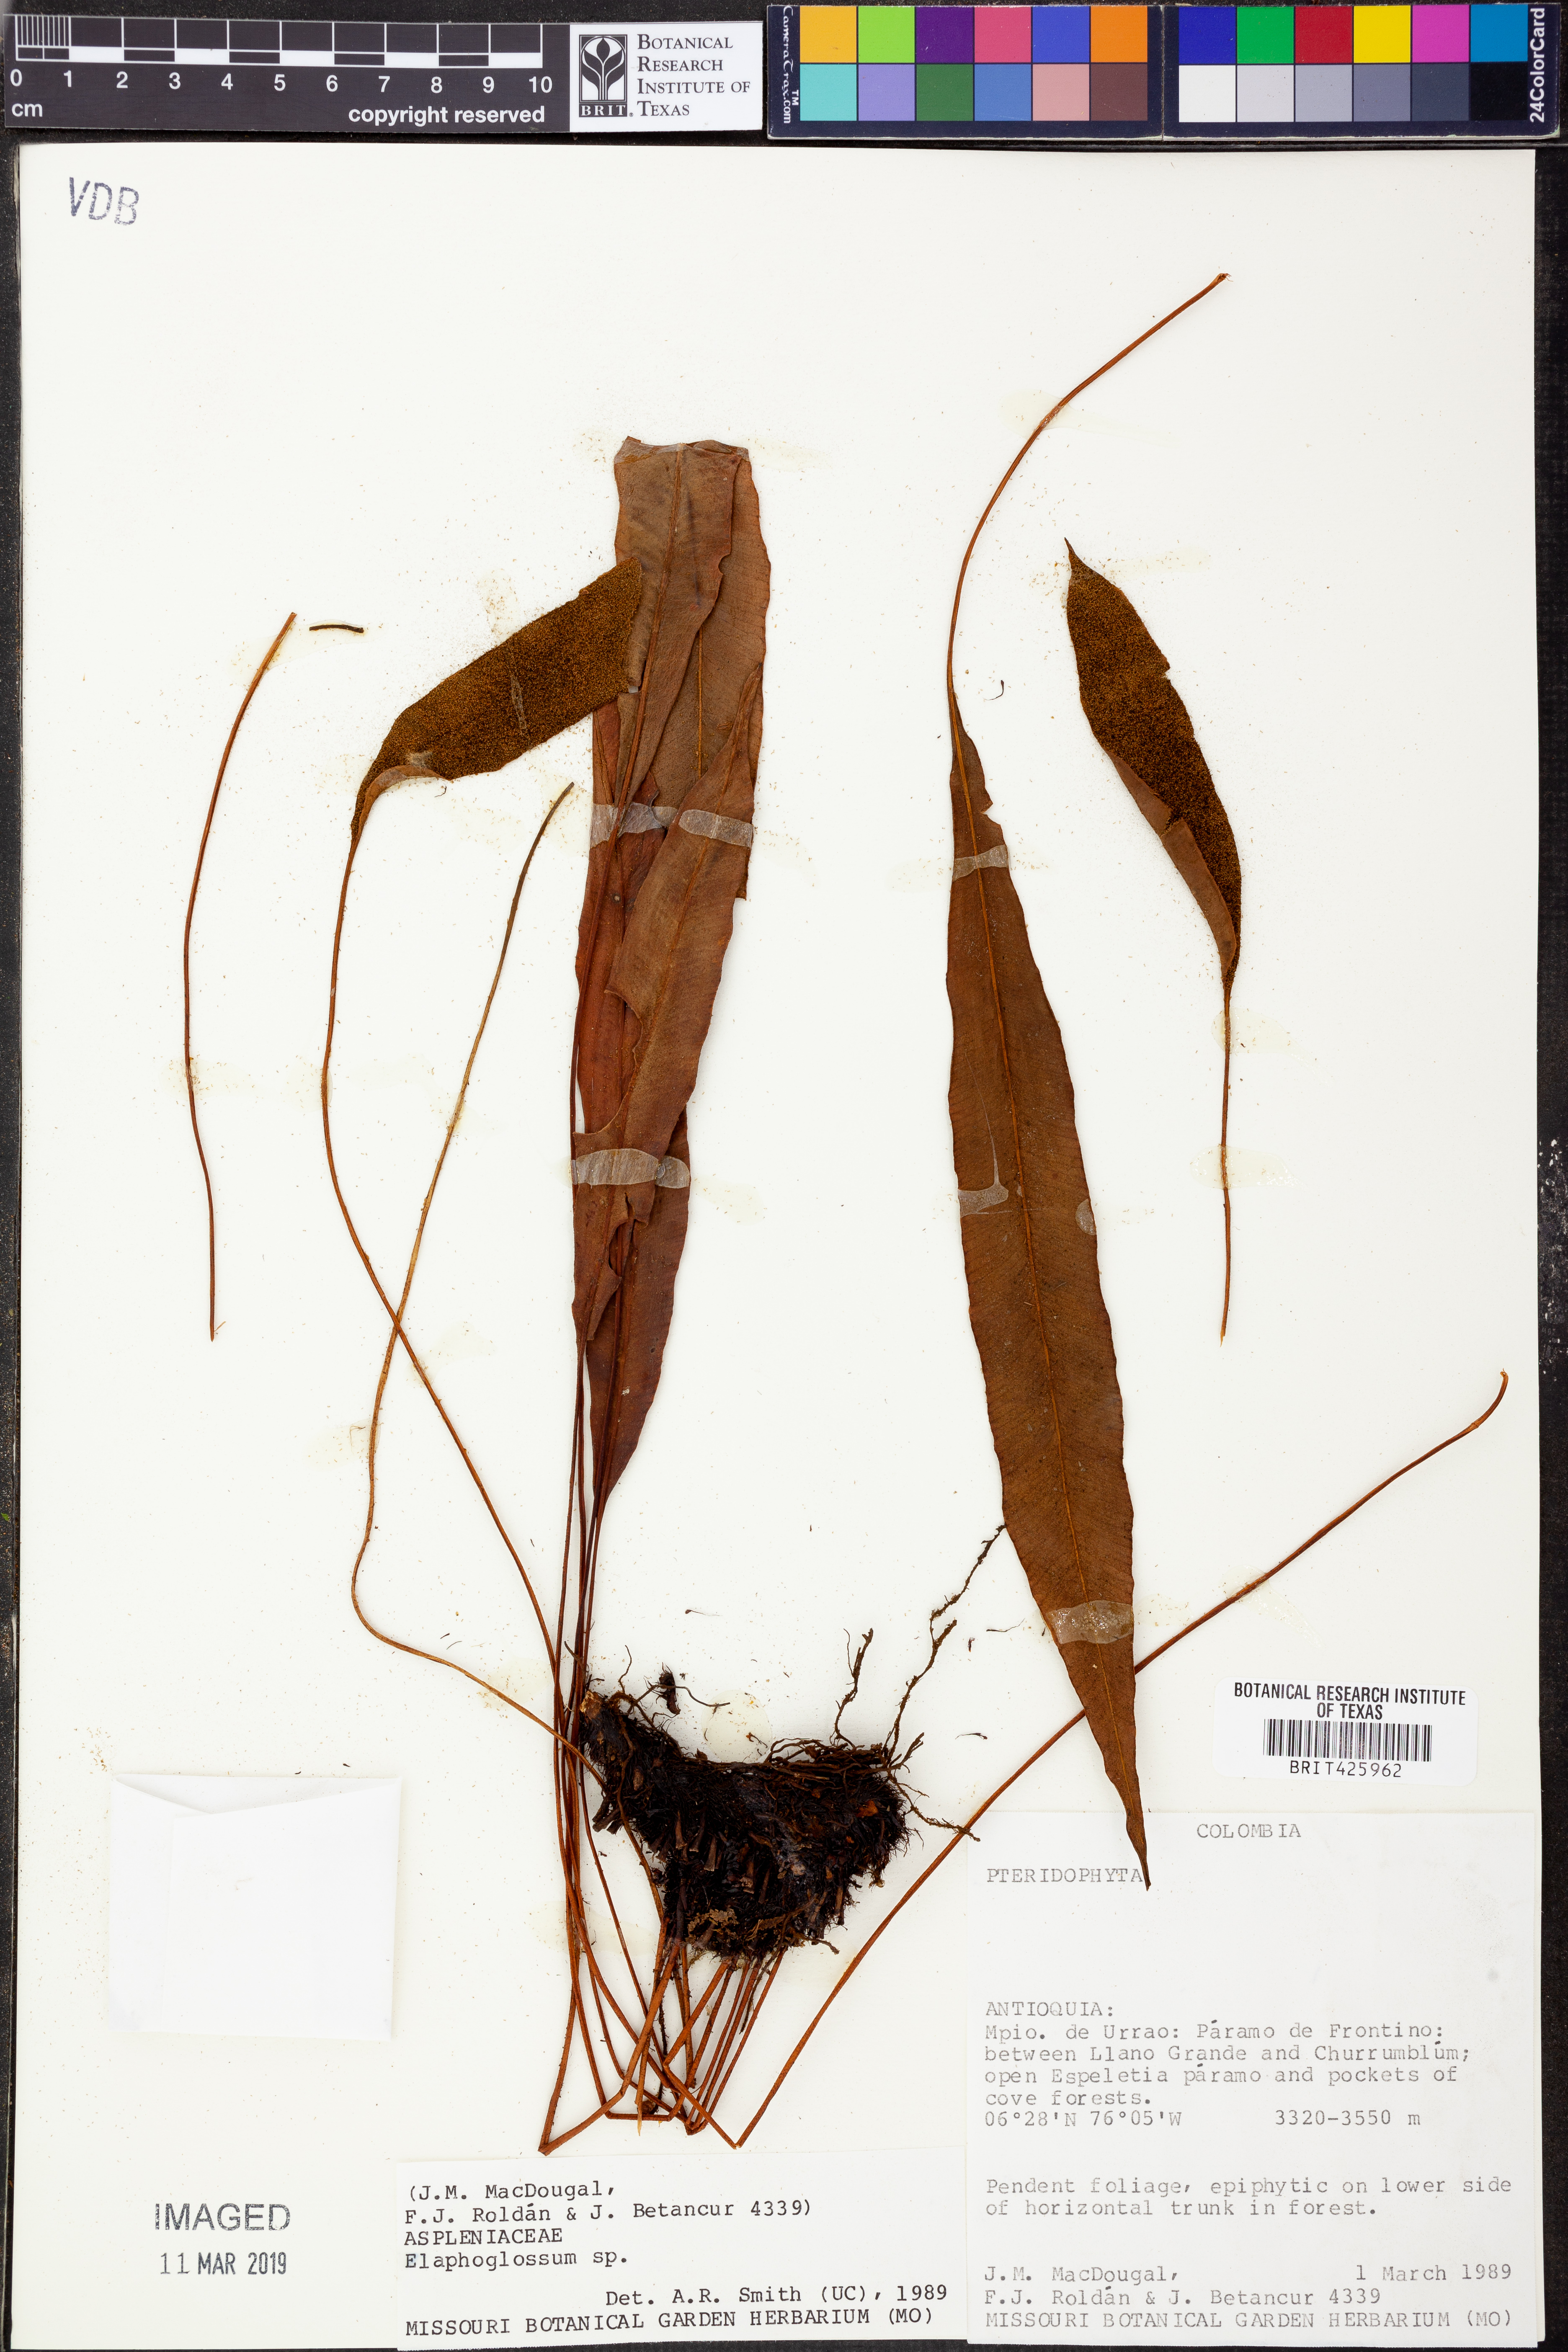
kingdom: Plantae
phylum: Tracheophyta
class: Polypodiopsida
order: Polypodiales
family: Dryopteridaceae
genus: Elaphoglossum
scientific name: Elaphoglossum
